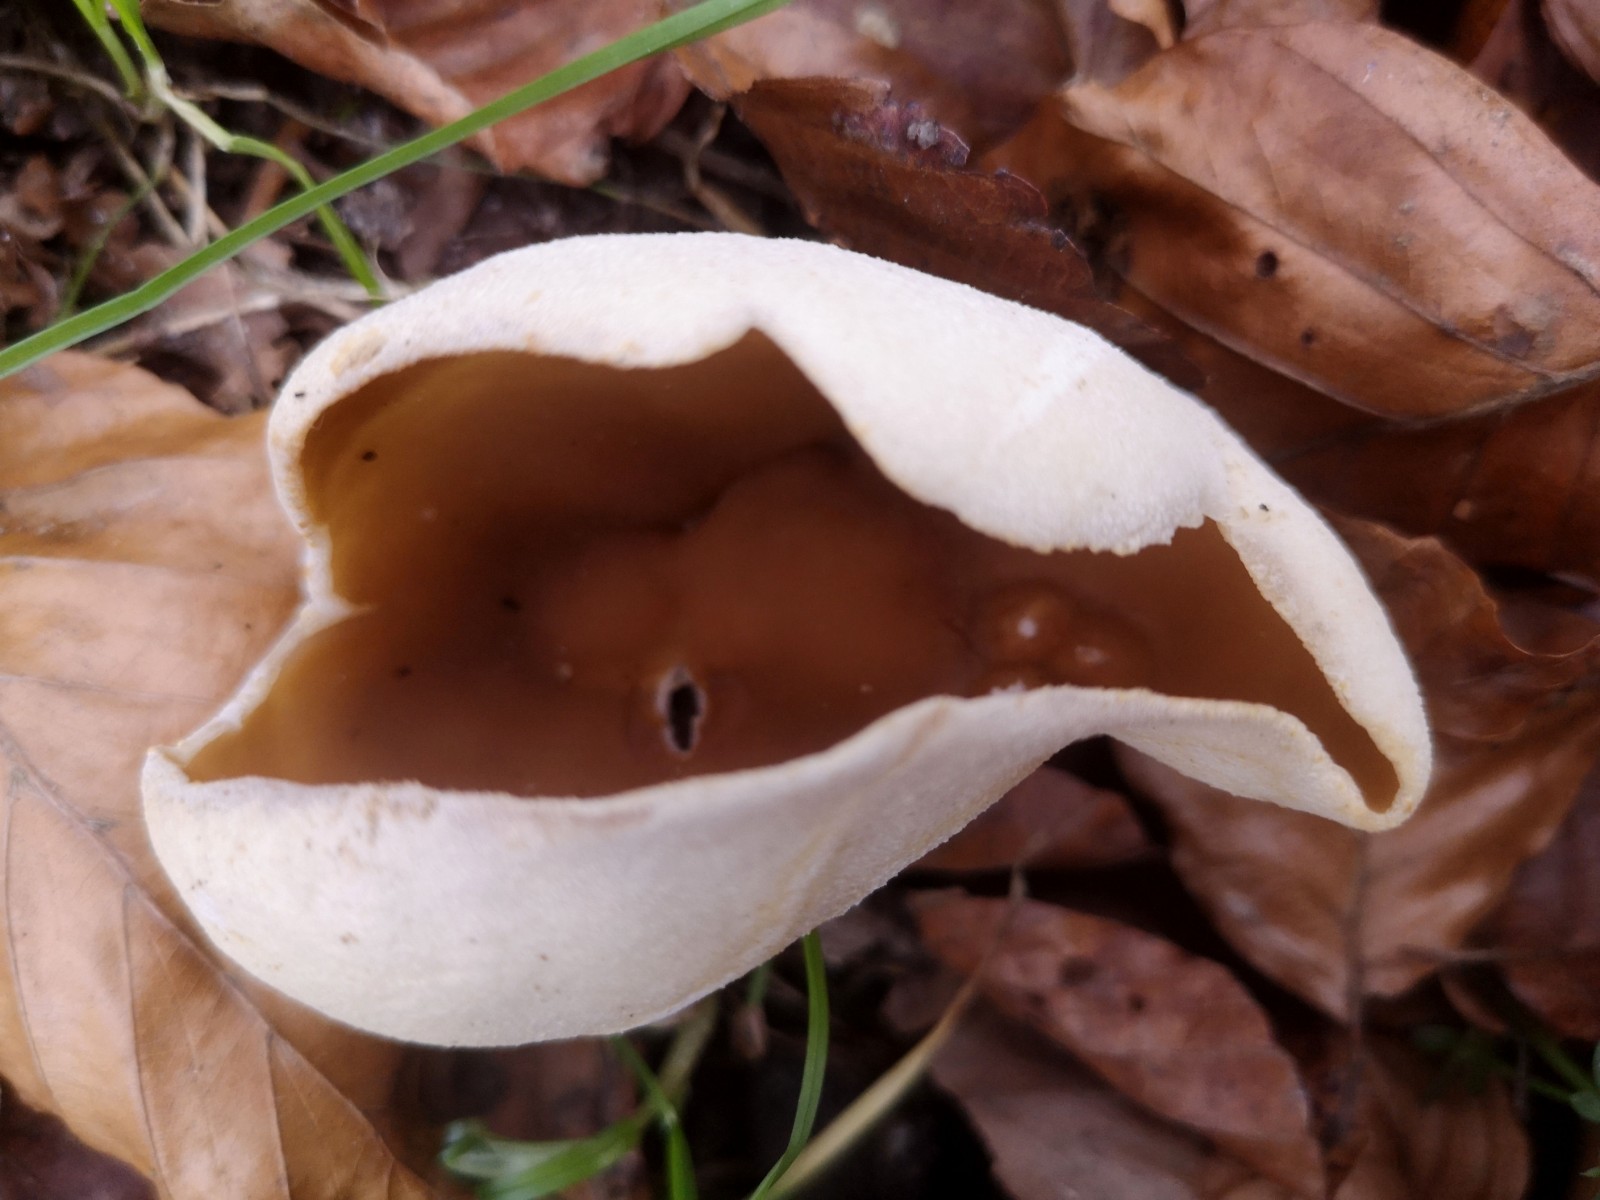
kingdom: Fungi
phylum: Ascomycota
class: Pezizomycetes
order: Pezizales
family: Pezizaceae
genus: Peziza
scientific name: Peziza
